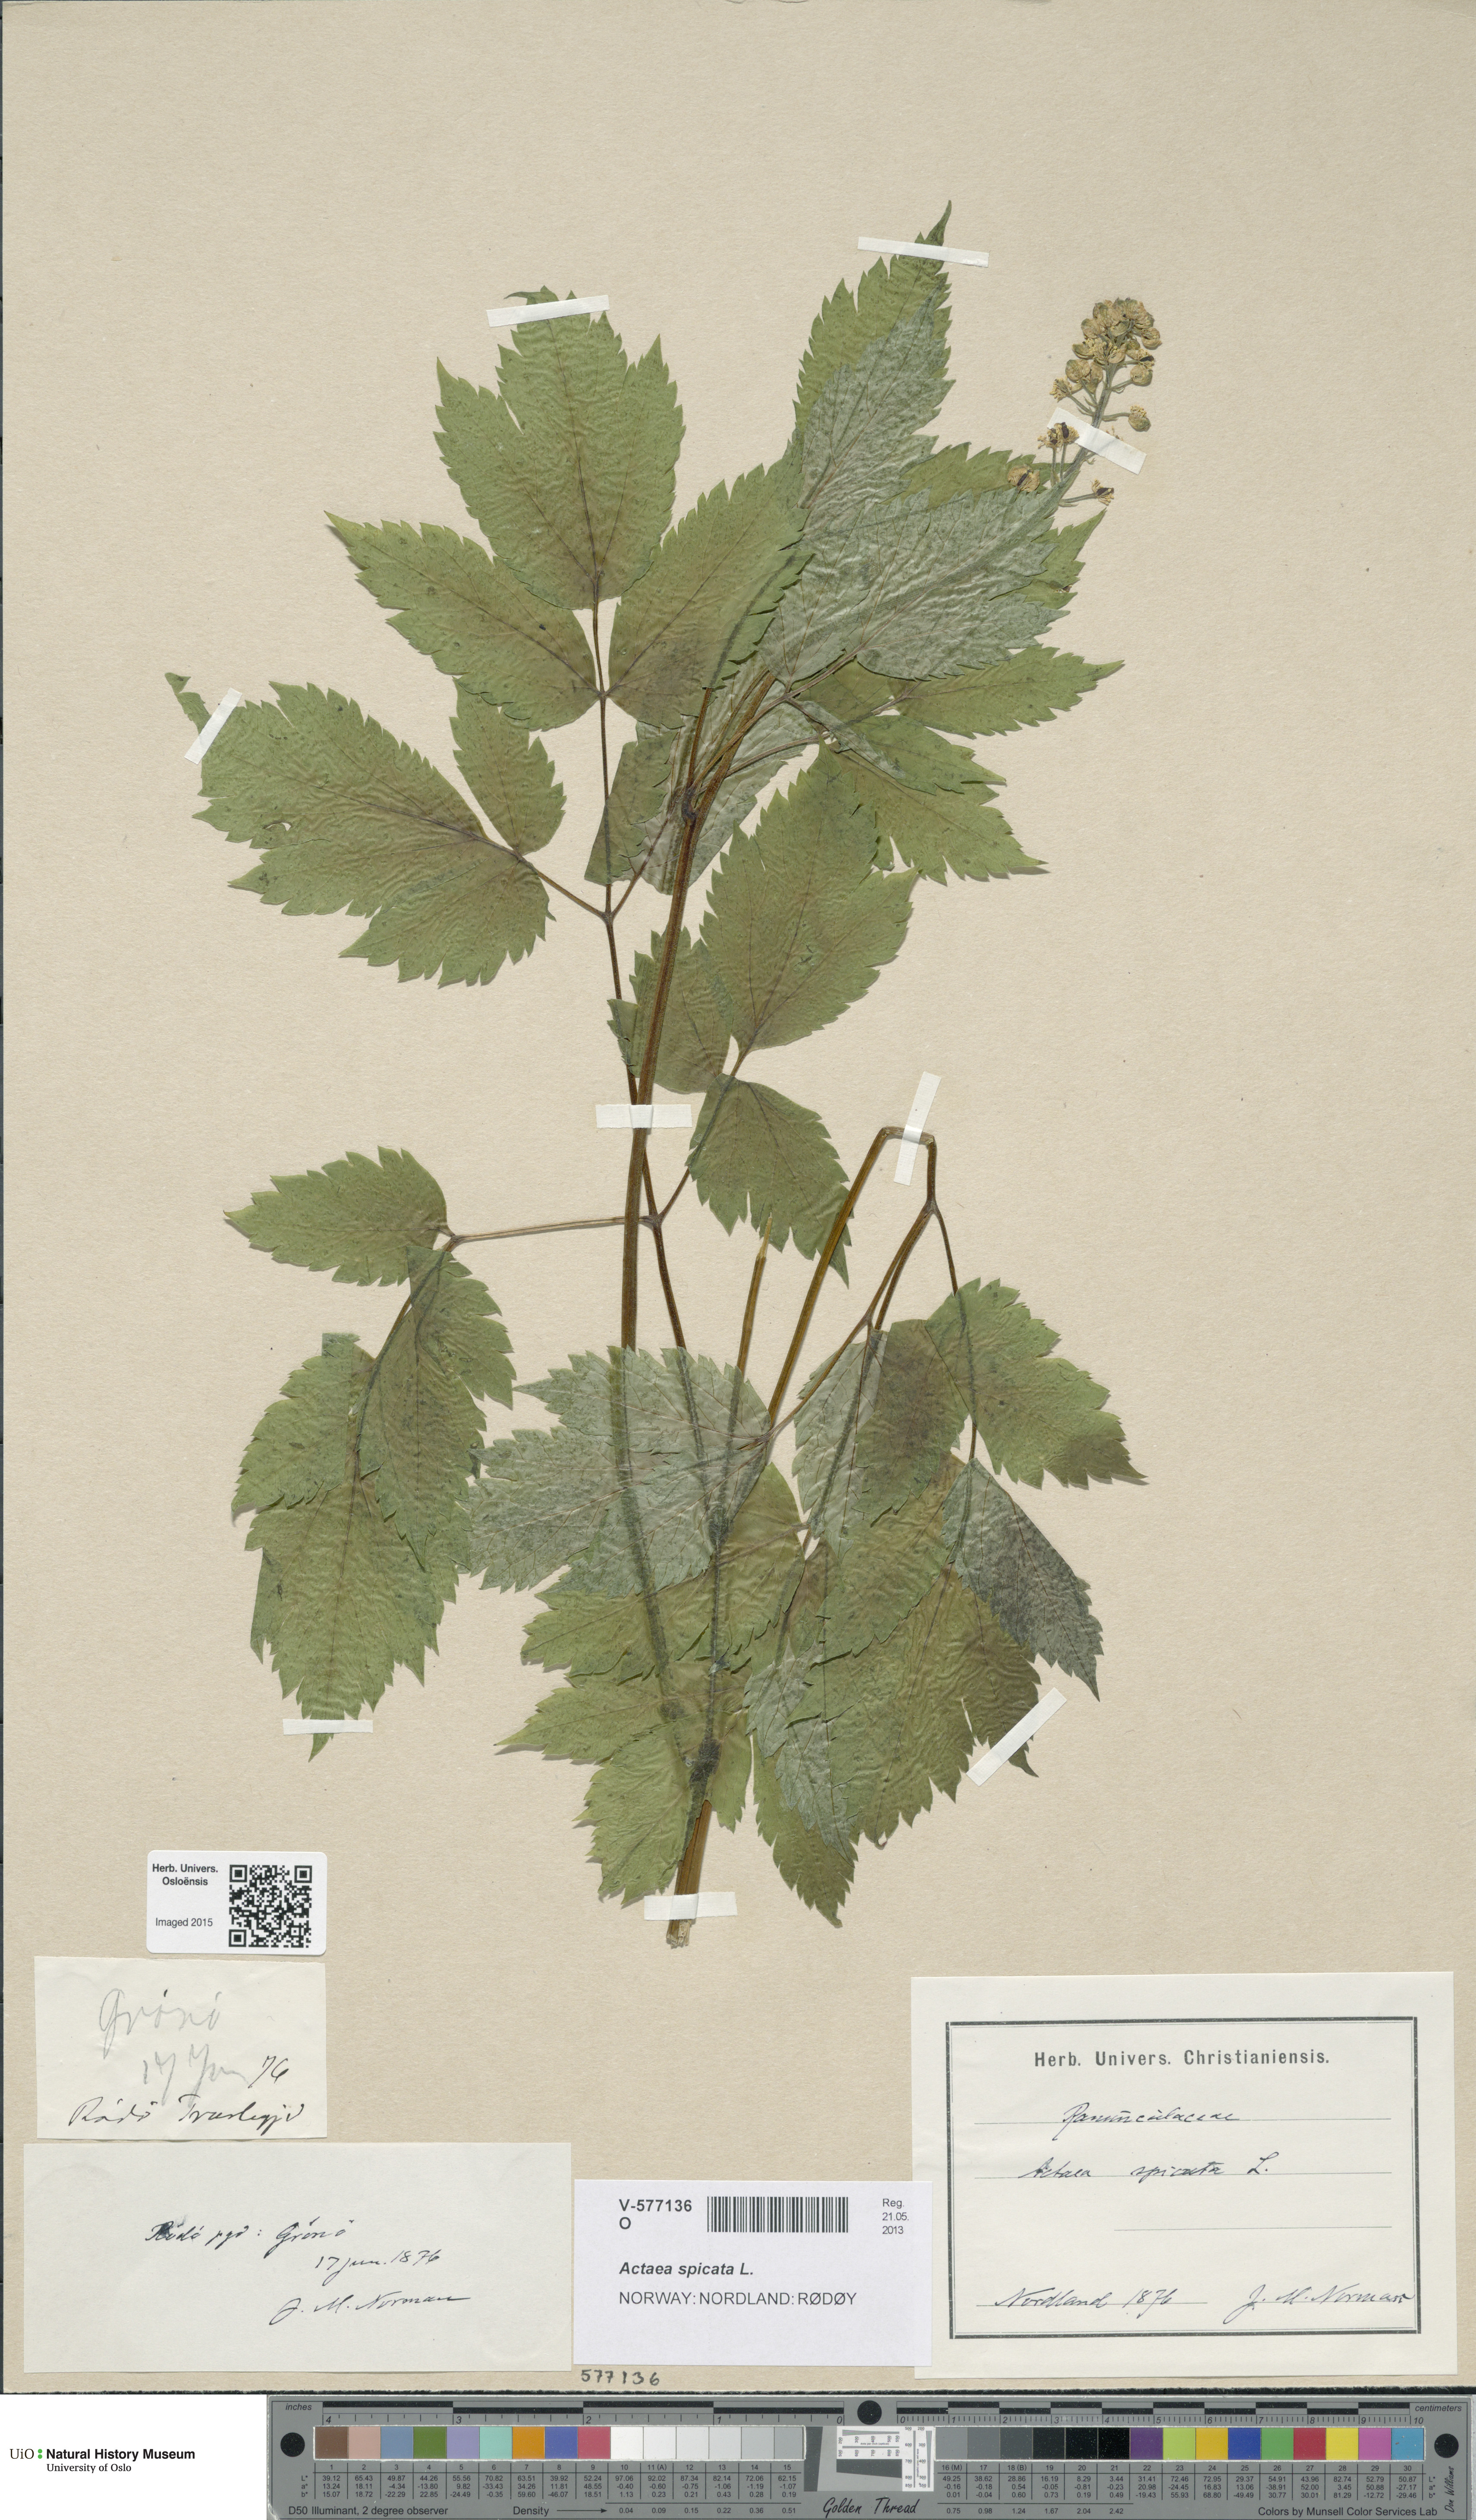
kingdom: Plantae
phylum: Tracheophyta
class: Magnoliopsida
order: Ranunculales
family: Ranunculaceae
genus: Actaea
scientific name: Actaea spicata
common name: Baneberry
